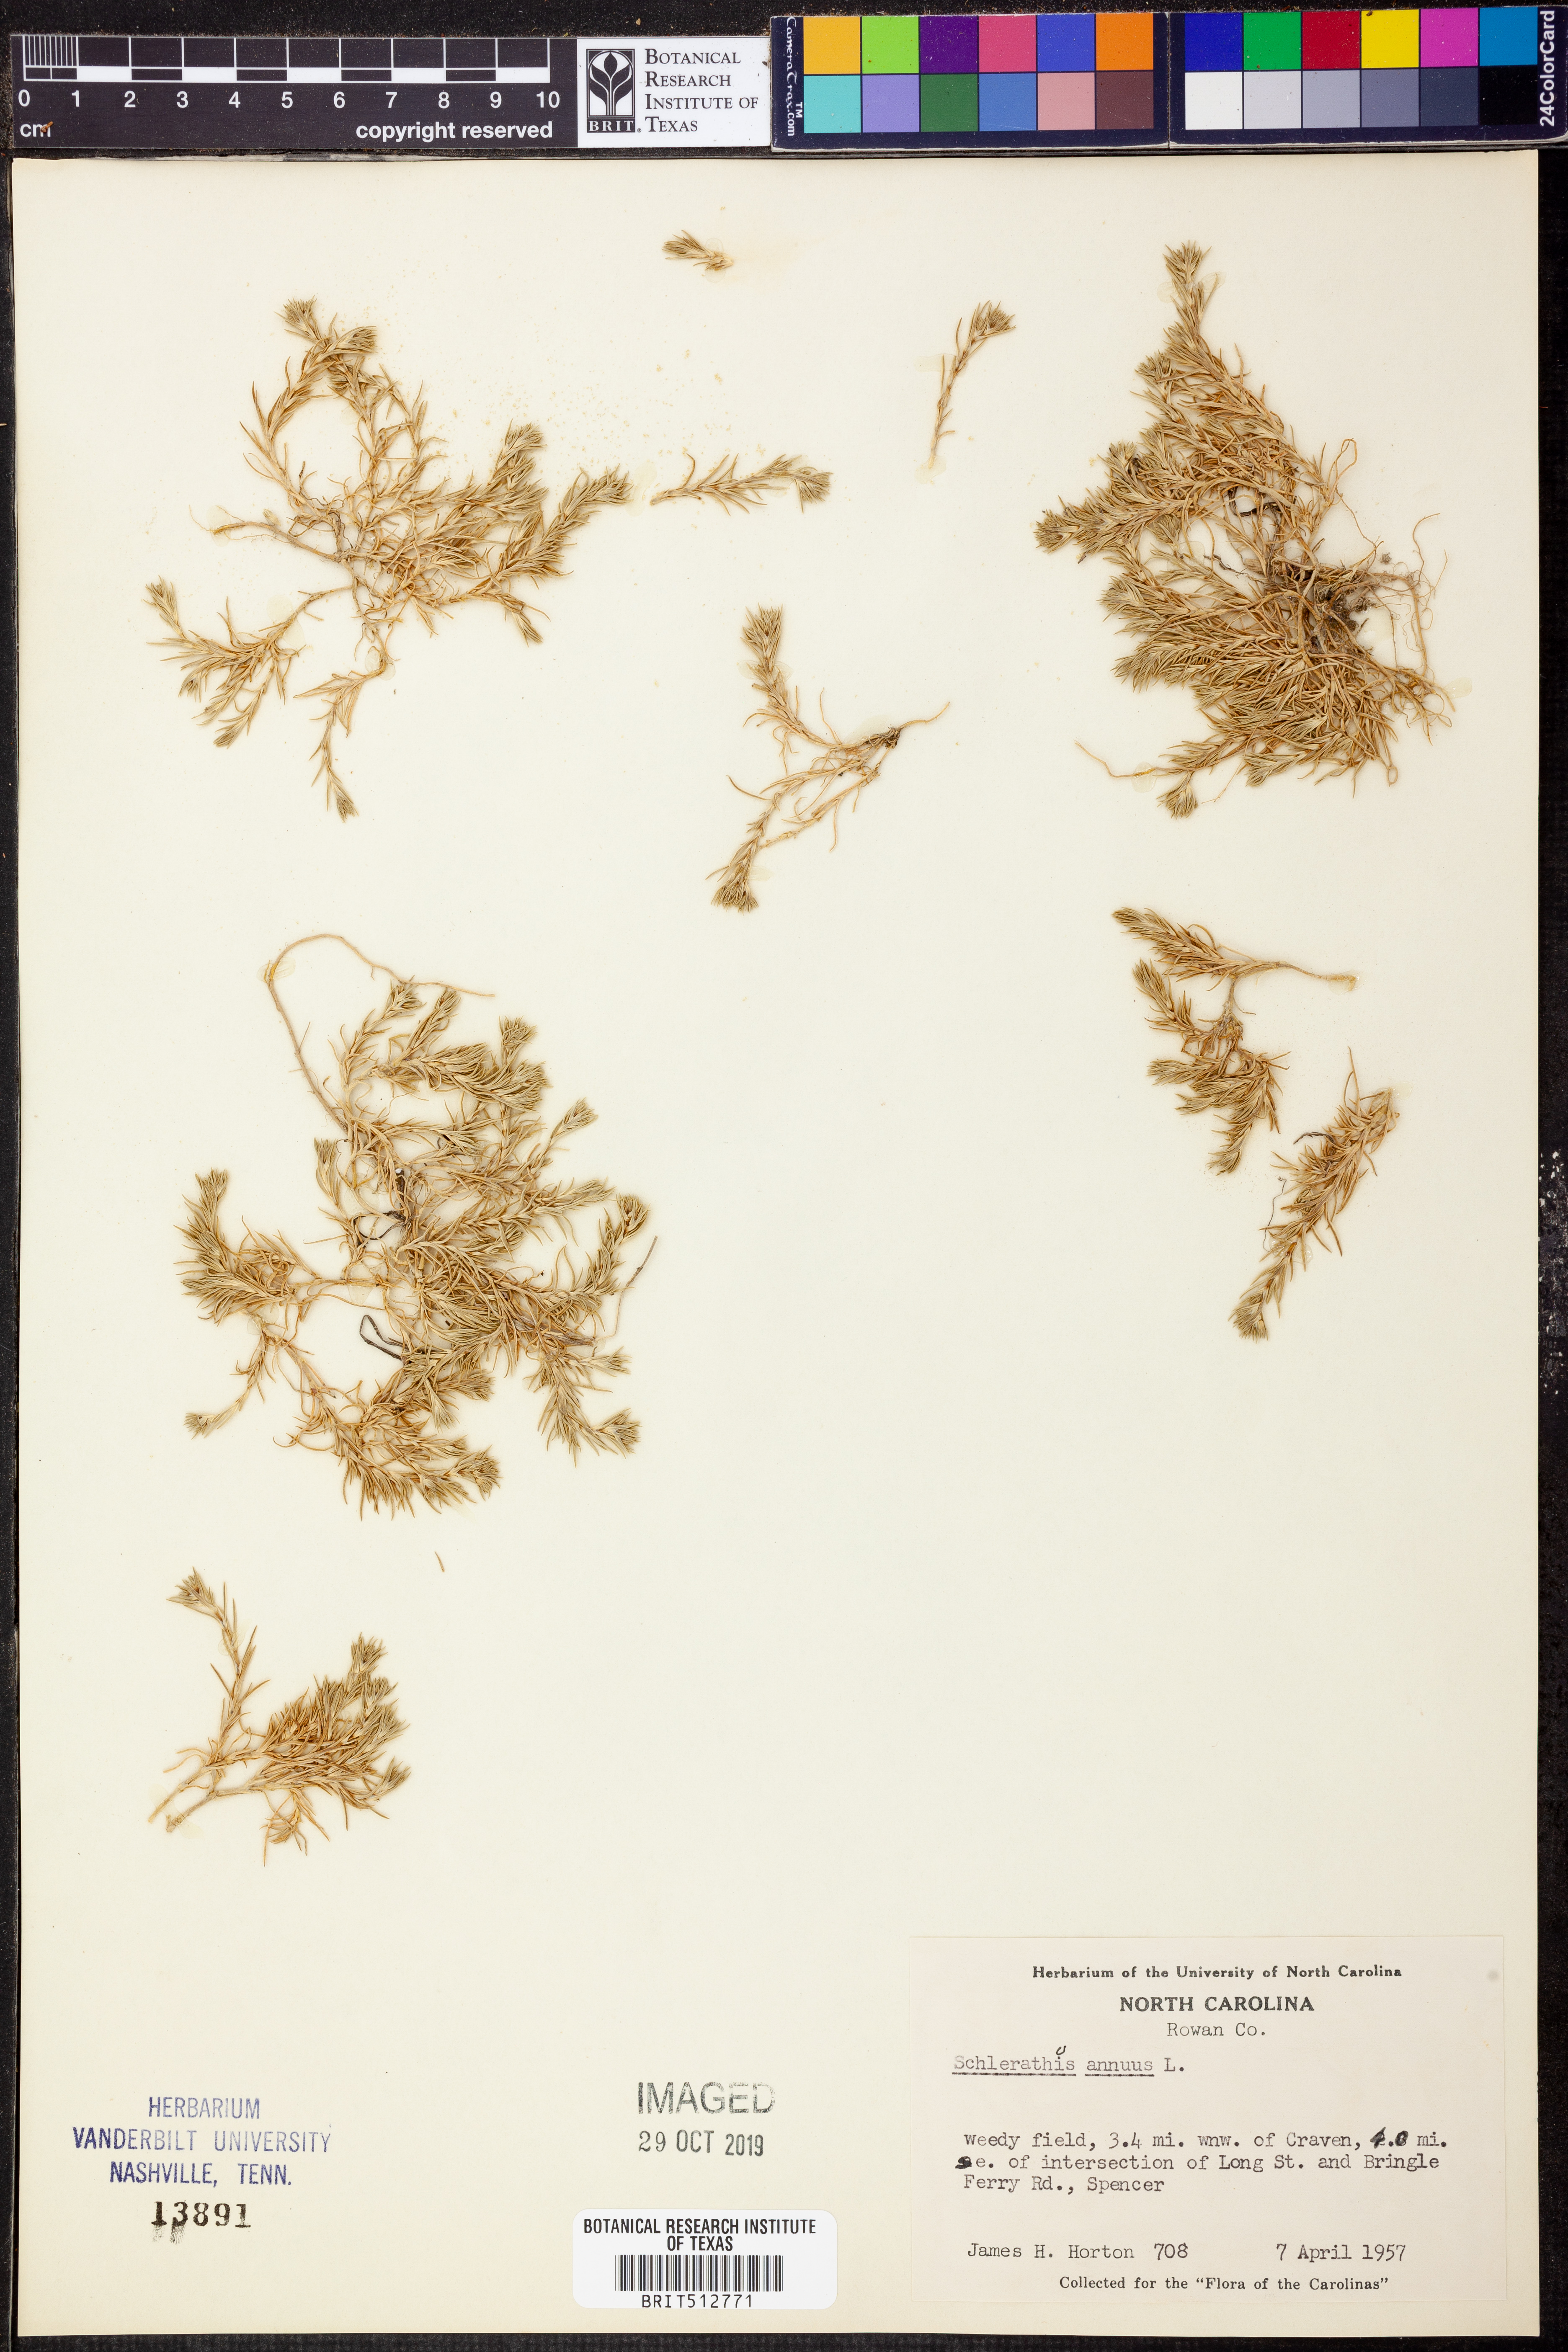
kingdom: Plantae
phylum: Tracheophyta
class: Magnoliopsida
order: Caryophyllales
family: Caryophyllaceae
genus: Scleranthus
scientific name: Scleranthus annuus
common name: Annual knawel
